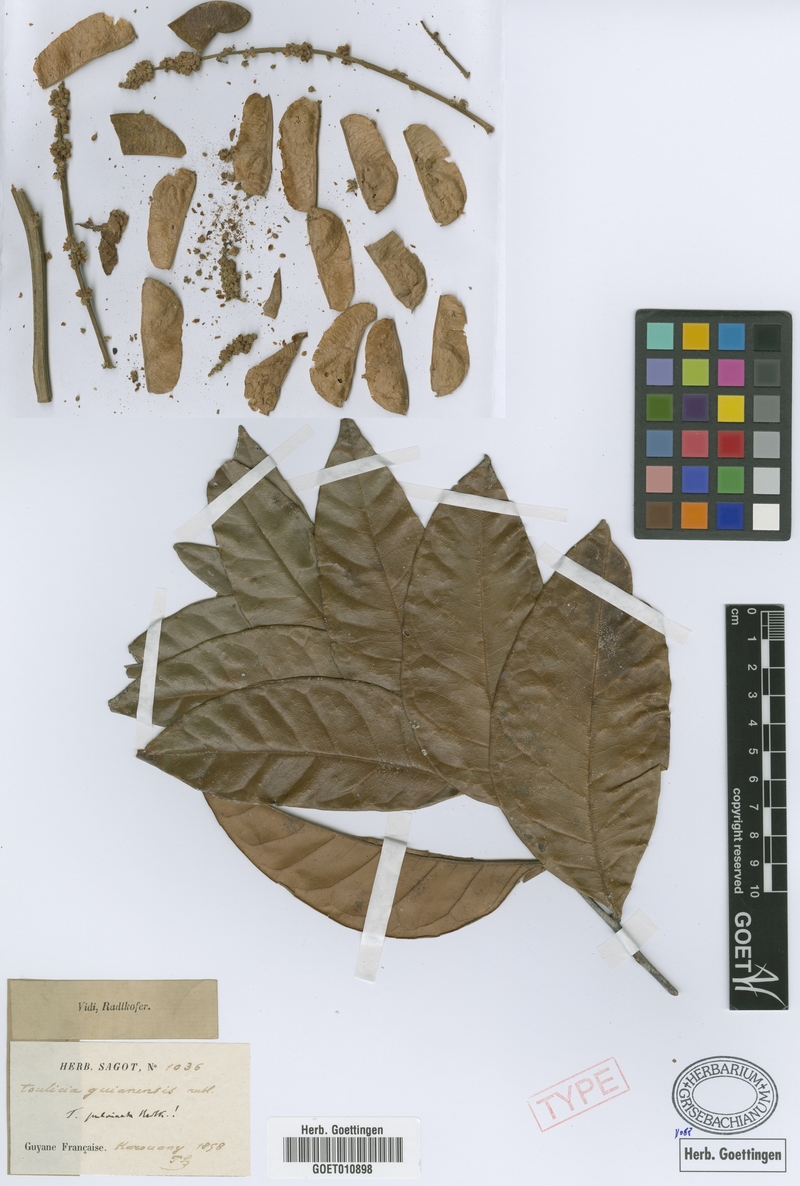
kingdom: Plantae
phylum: Tracheophyta
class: Magnoliopsida
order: Sapindales
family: Sapindaceae
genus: Toulicia
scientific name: Toulicia pulvinata
